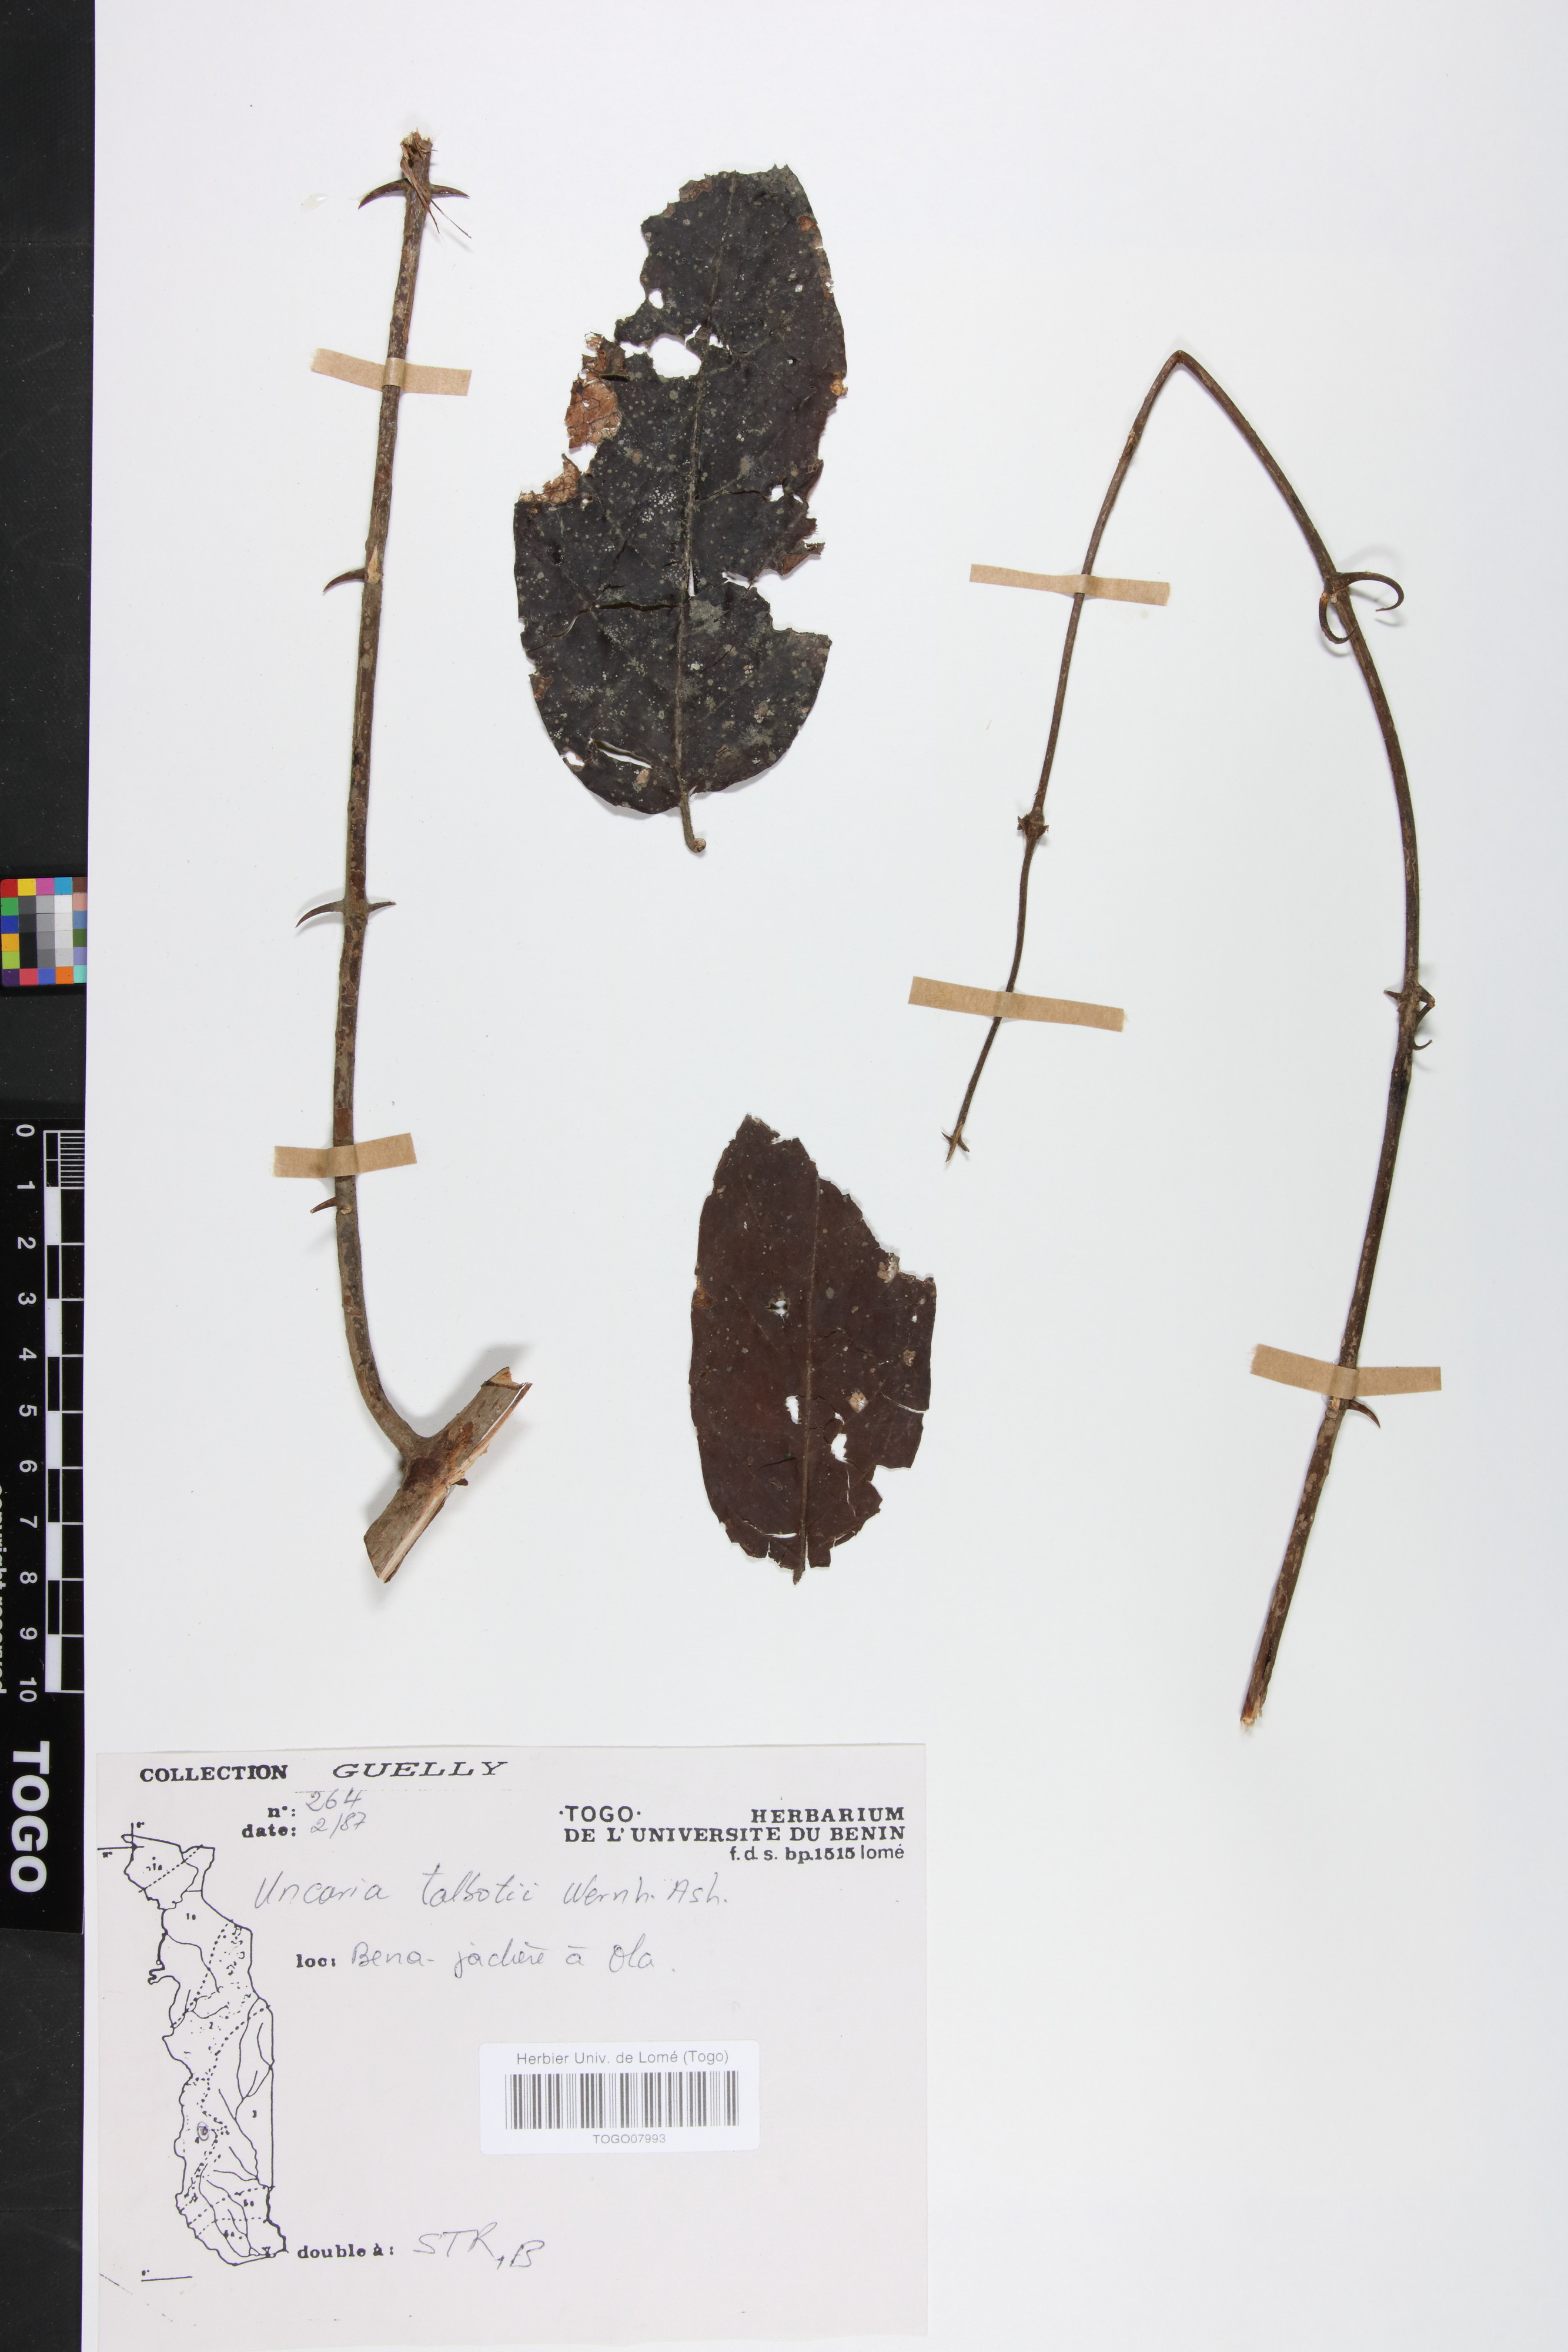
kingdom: Plantae
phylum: Tracheophyta
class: Magnoliopsida
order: Gentianales
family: Rubiaceae
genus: Uncaria
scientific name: Uncaria talbotii
